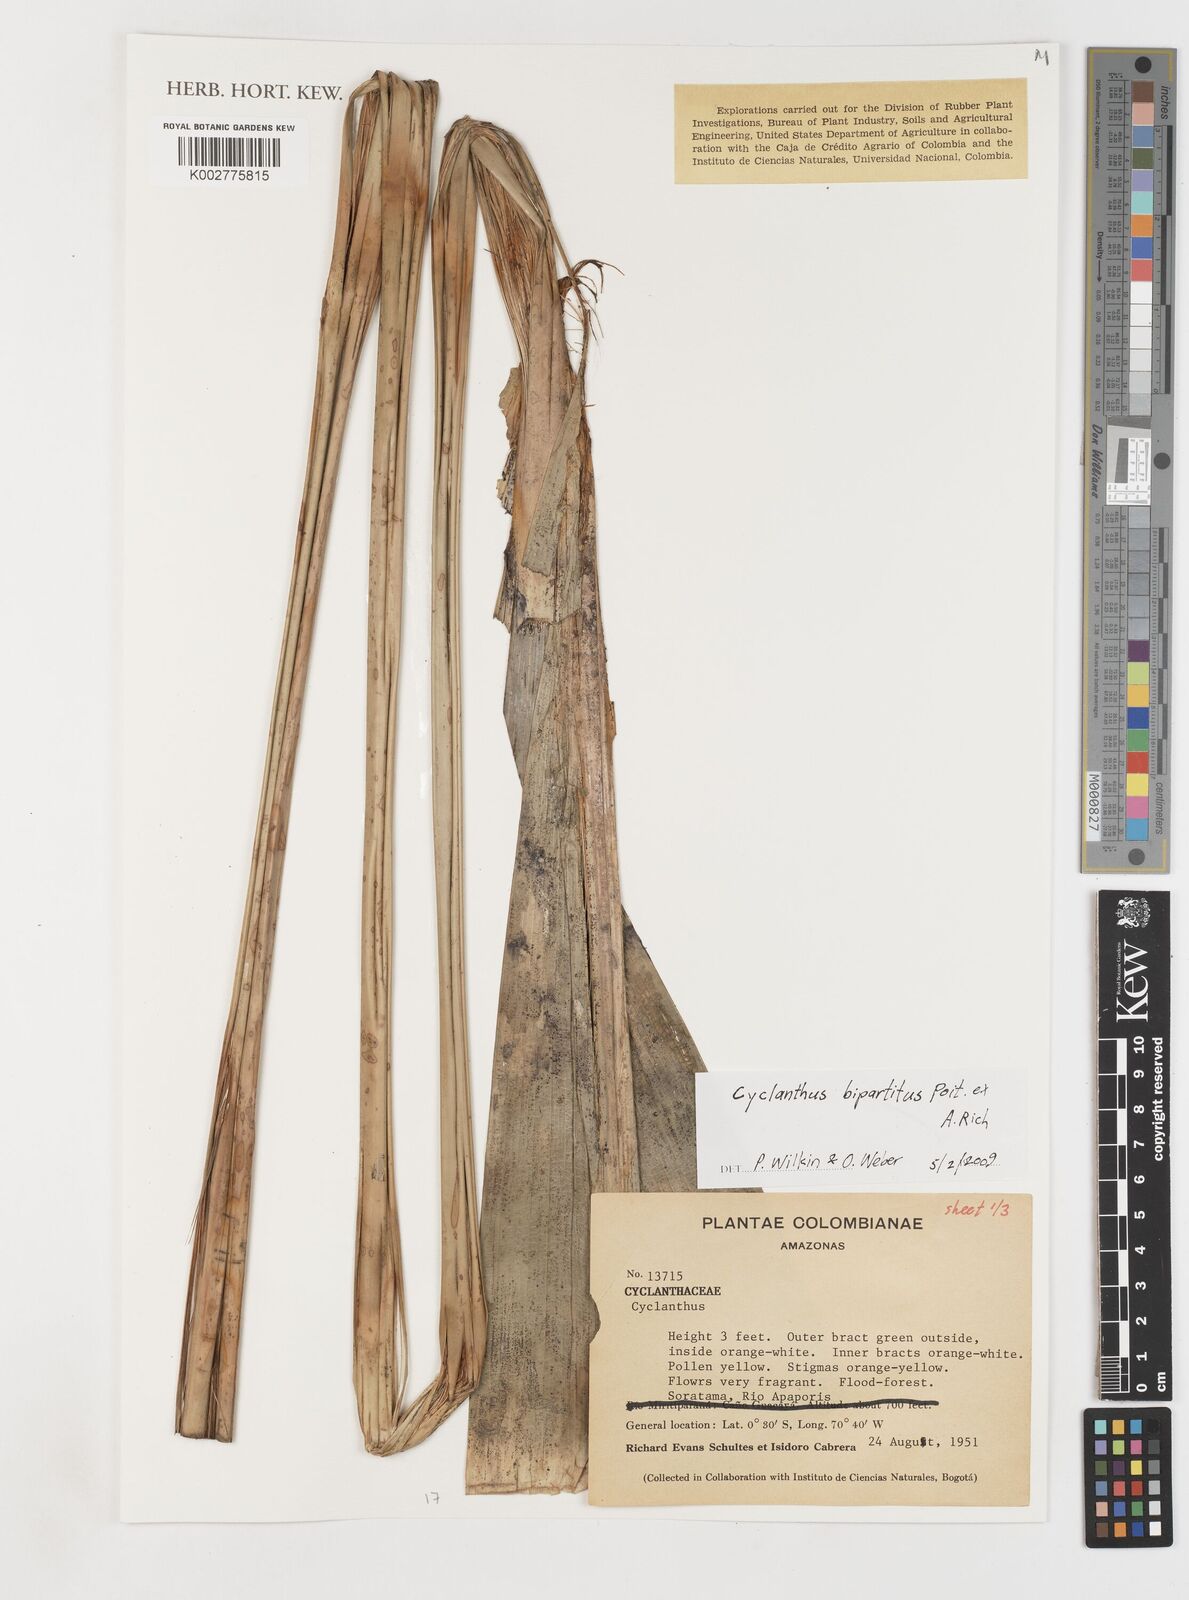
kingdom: Plantae
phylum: Tracheophyta
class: Liliopsida
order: Pandanales
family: Cyclanthaceae
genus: Cyclanthus
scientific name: Cyclanthus bipartitus
